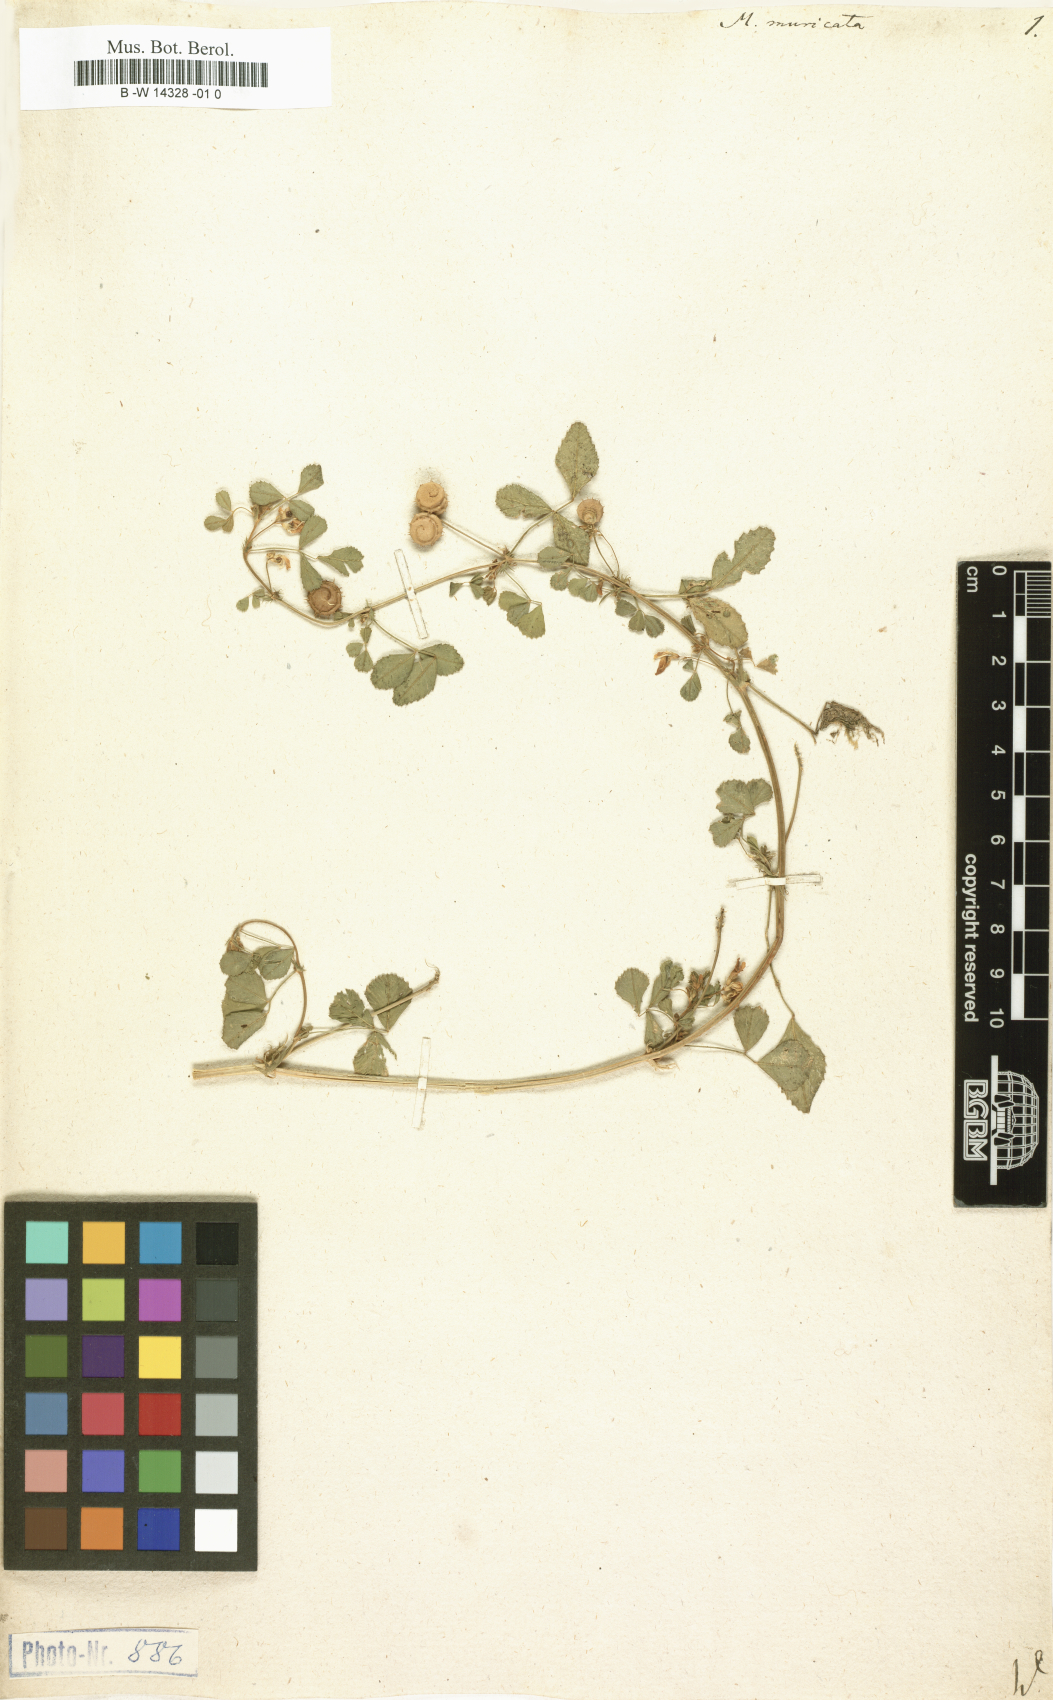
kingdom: Plantae
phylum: Tracheophyta
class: Magnoliopsida
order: Fabales
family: Fabaceae
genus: Medicago
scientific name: Medicago tornata
